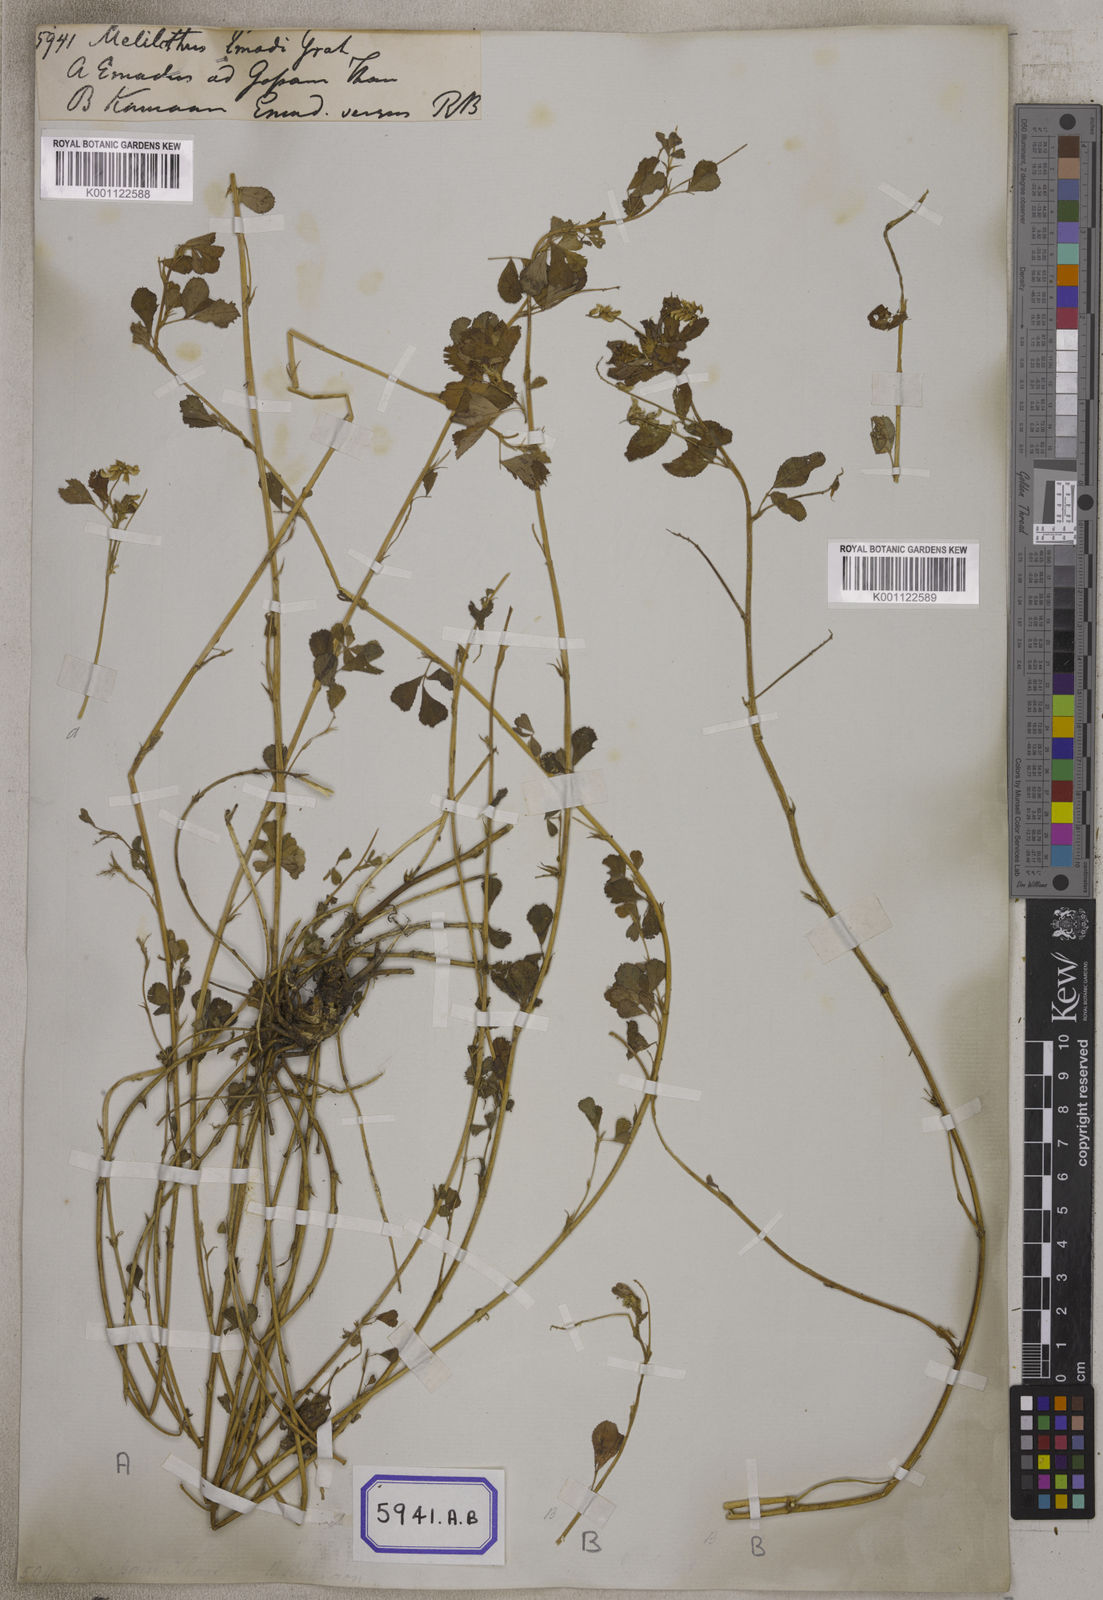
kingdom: Plantae
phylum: Tracheophyta
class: Magnoliopsida
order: Fabales
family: Fabaceae
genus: Trigonella
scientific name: Trigonella emodi
